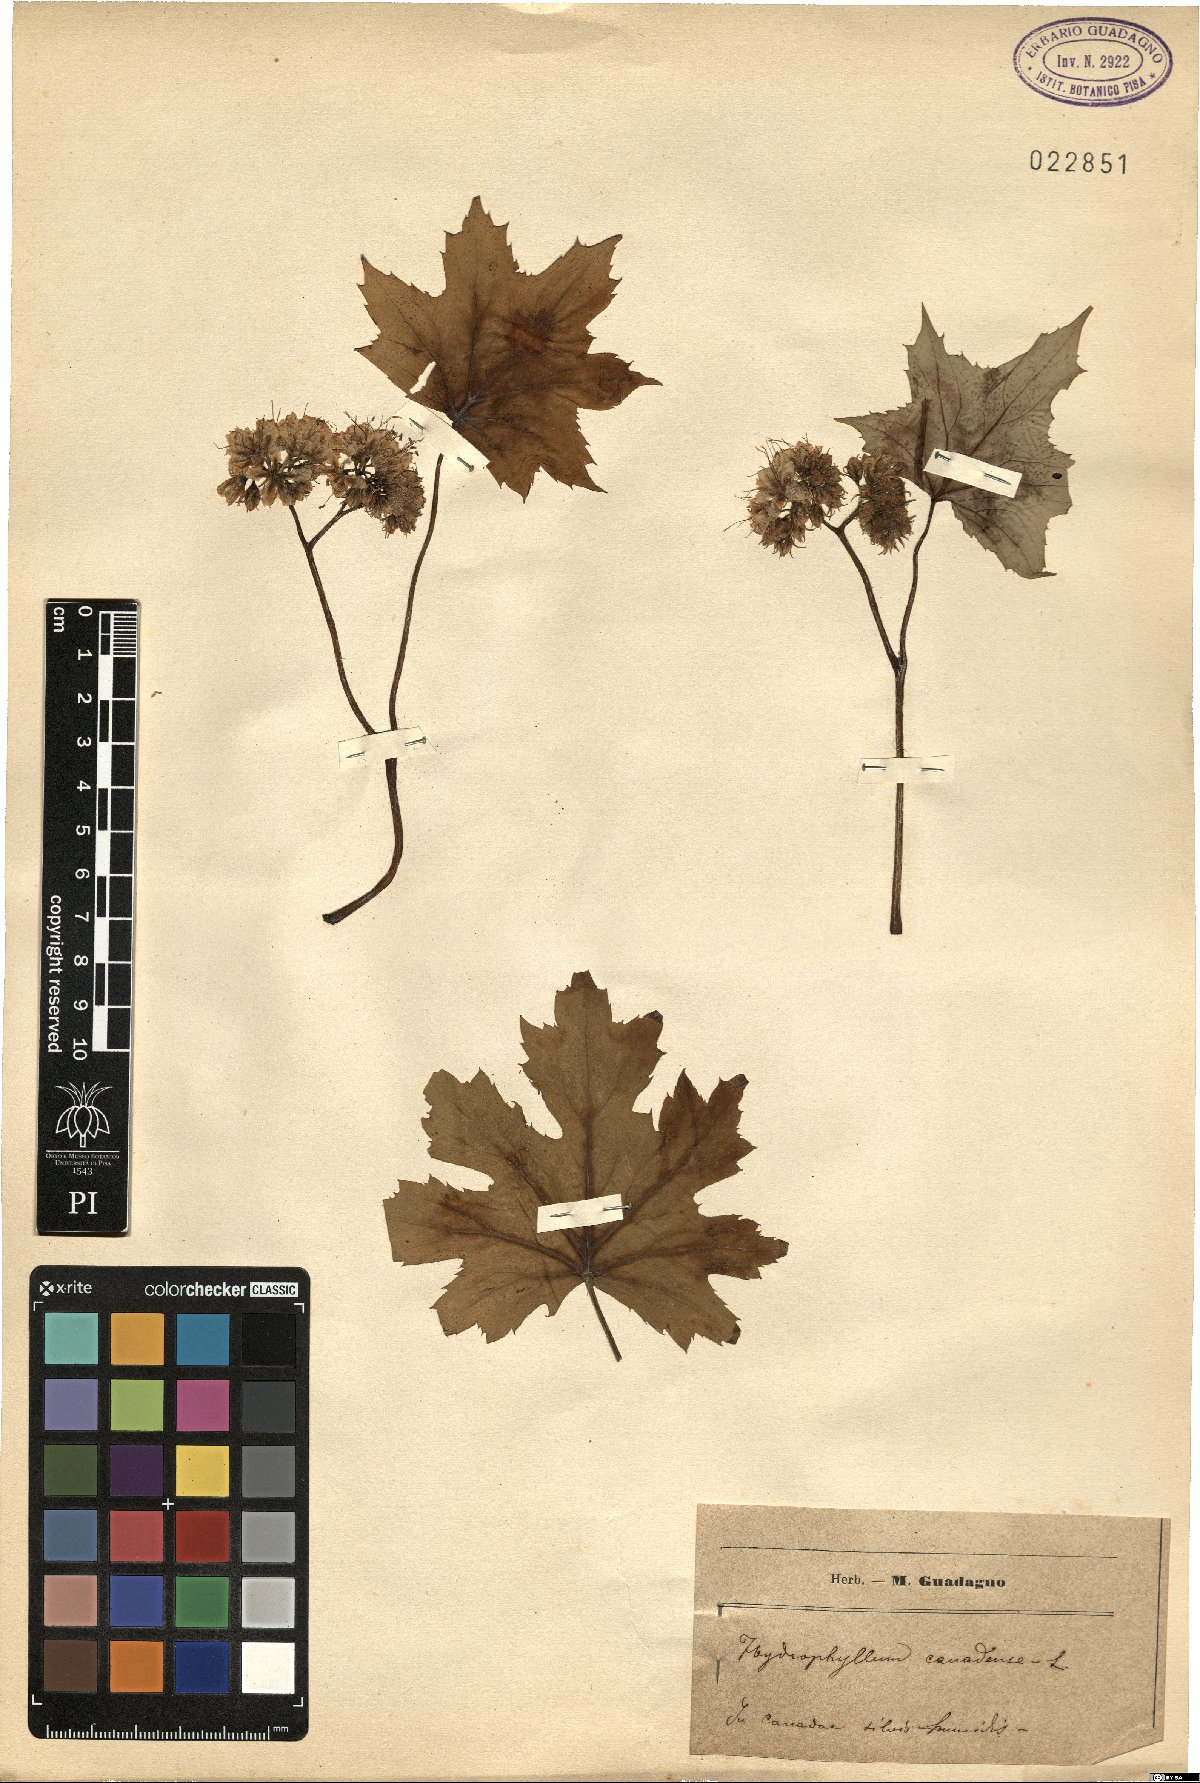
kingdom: Plantae
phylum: Tracheophyta
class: Magnoliopsida
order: Boraginales
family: Hydrophyllaceae
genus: Hydrophyllum
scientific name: Hydrophyllum canadense
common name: Canada waterleaf
